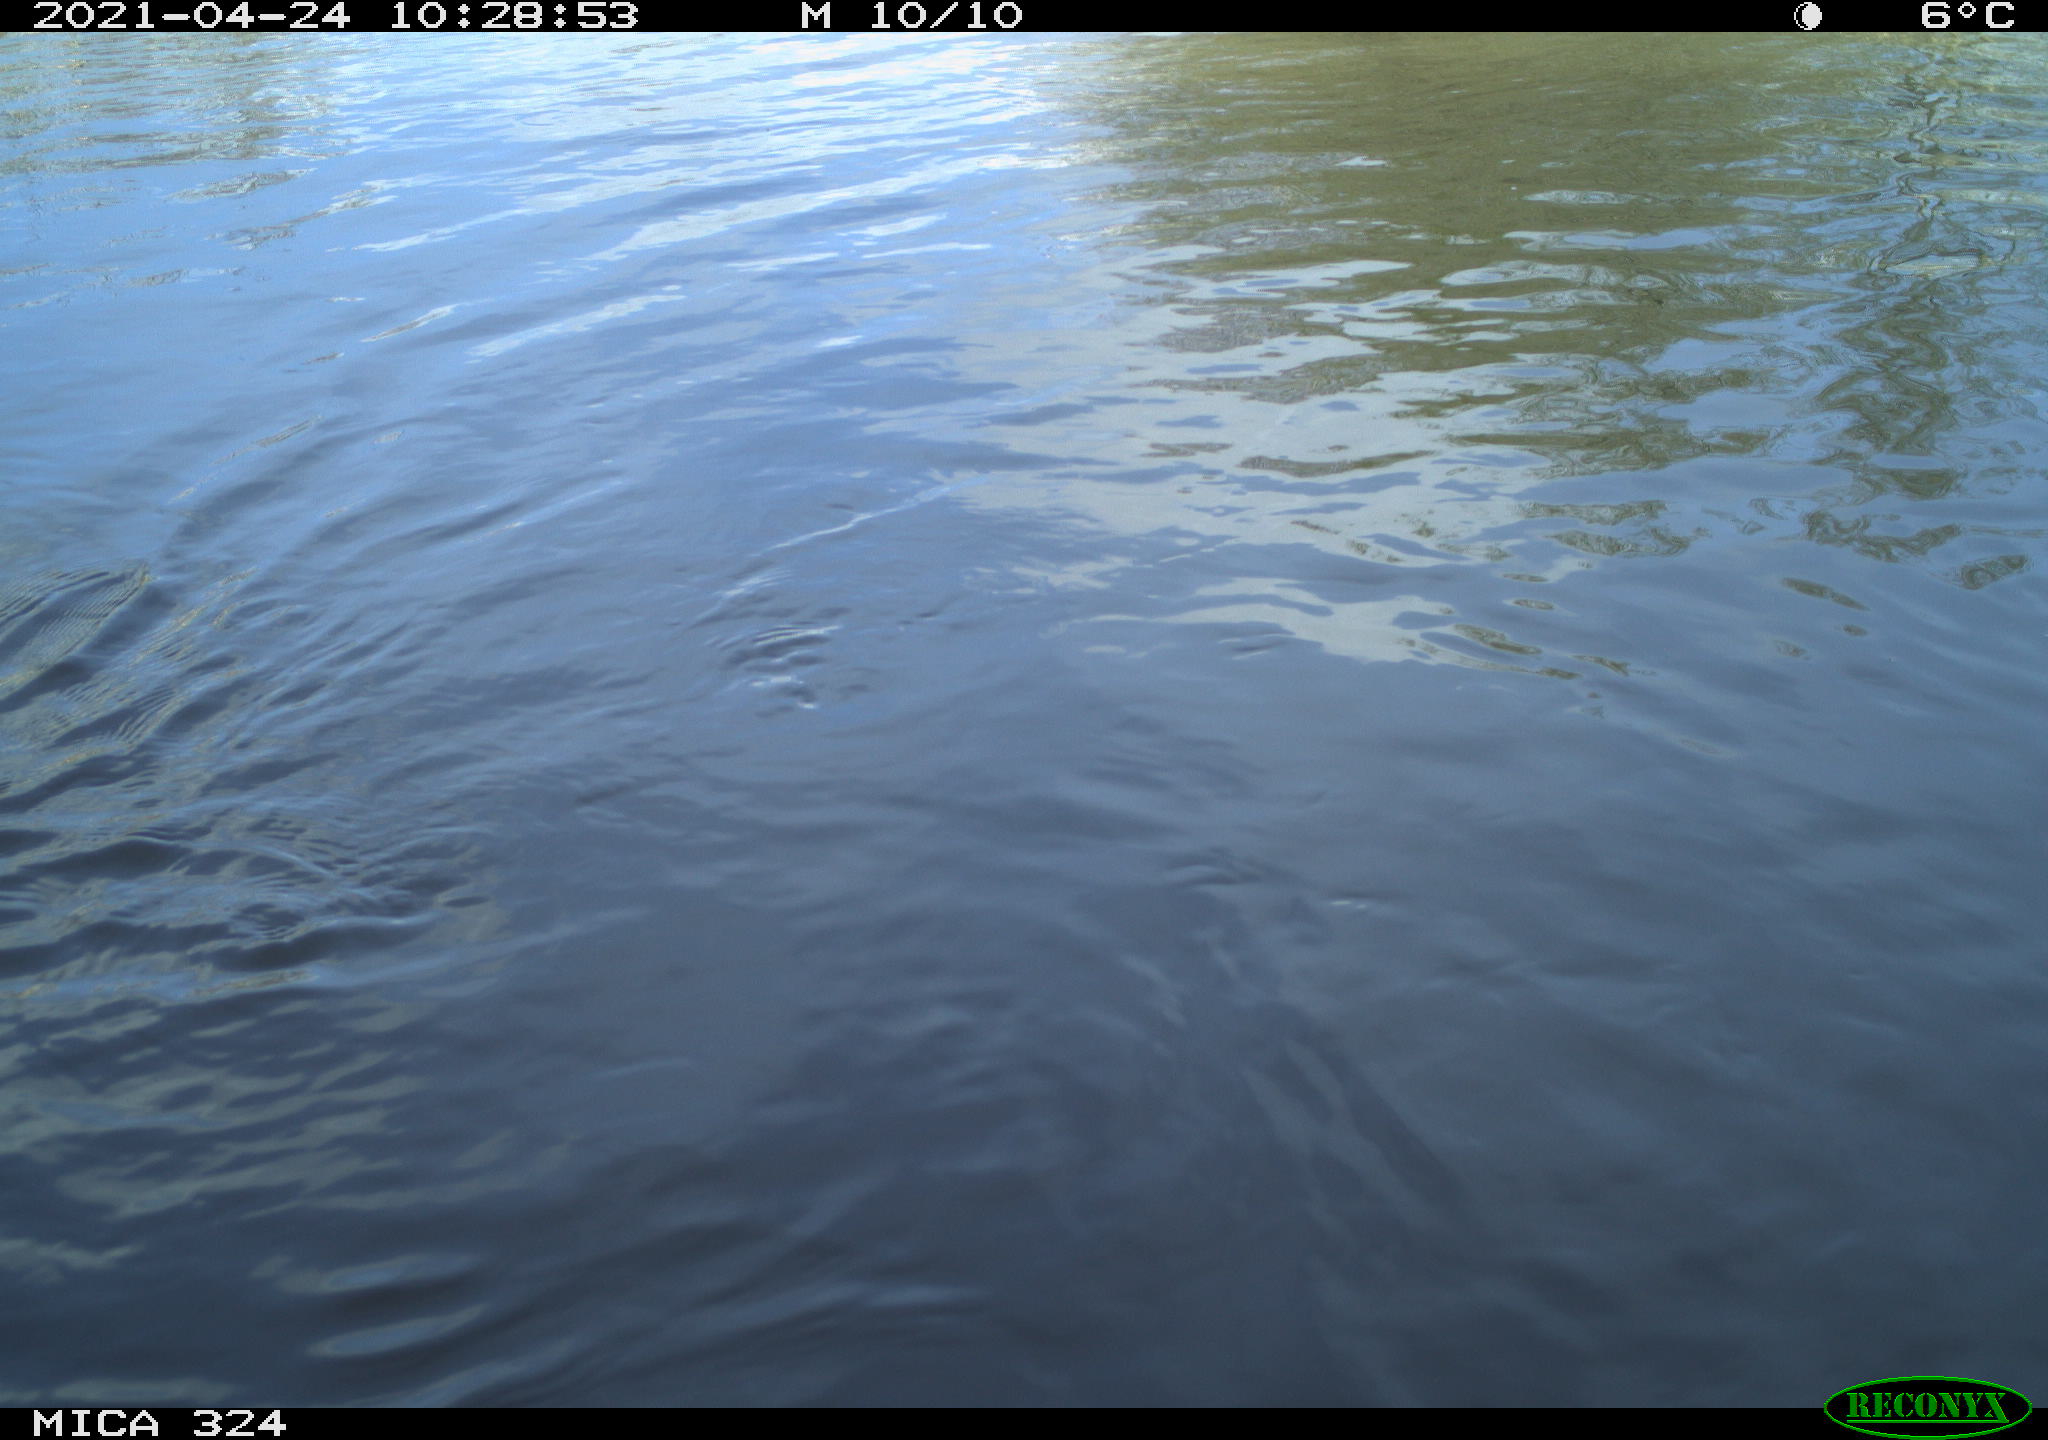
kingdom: Animalia
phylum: Chordata
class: Mammalia
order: Rodentia
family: Cricetidae
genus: Ondatra
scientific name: Ondatra zibethicus
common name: Muskrat
